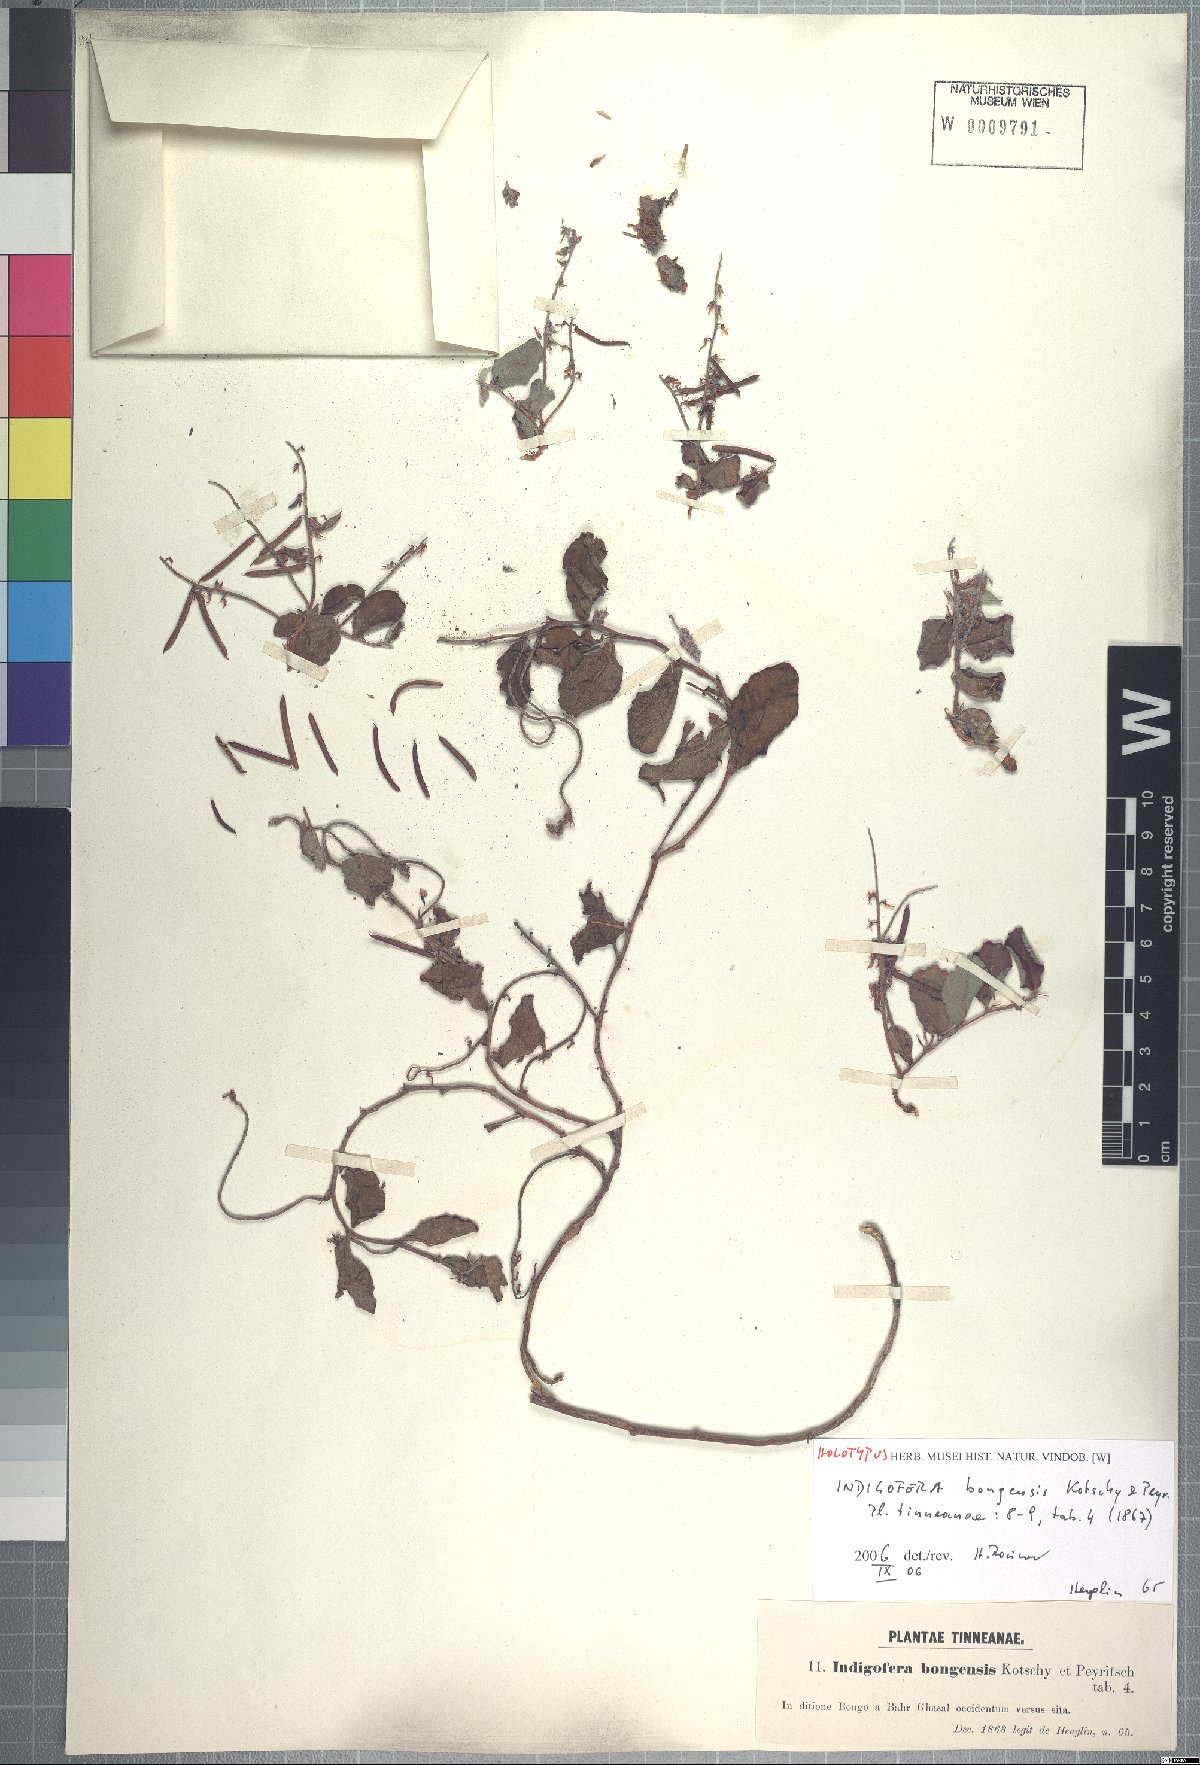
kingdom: Plantae
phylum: Tracheophyta
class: Magnoliopsida
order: Fabales
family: Fabaceae
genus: Indigofera
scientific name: Indigofera bongensis
